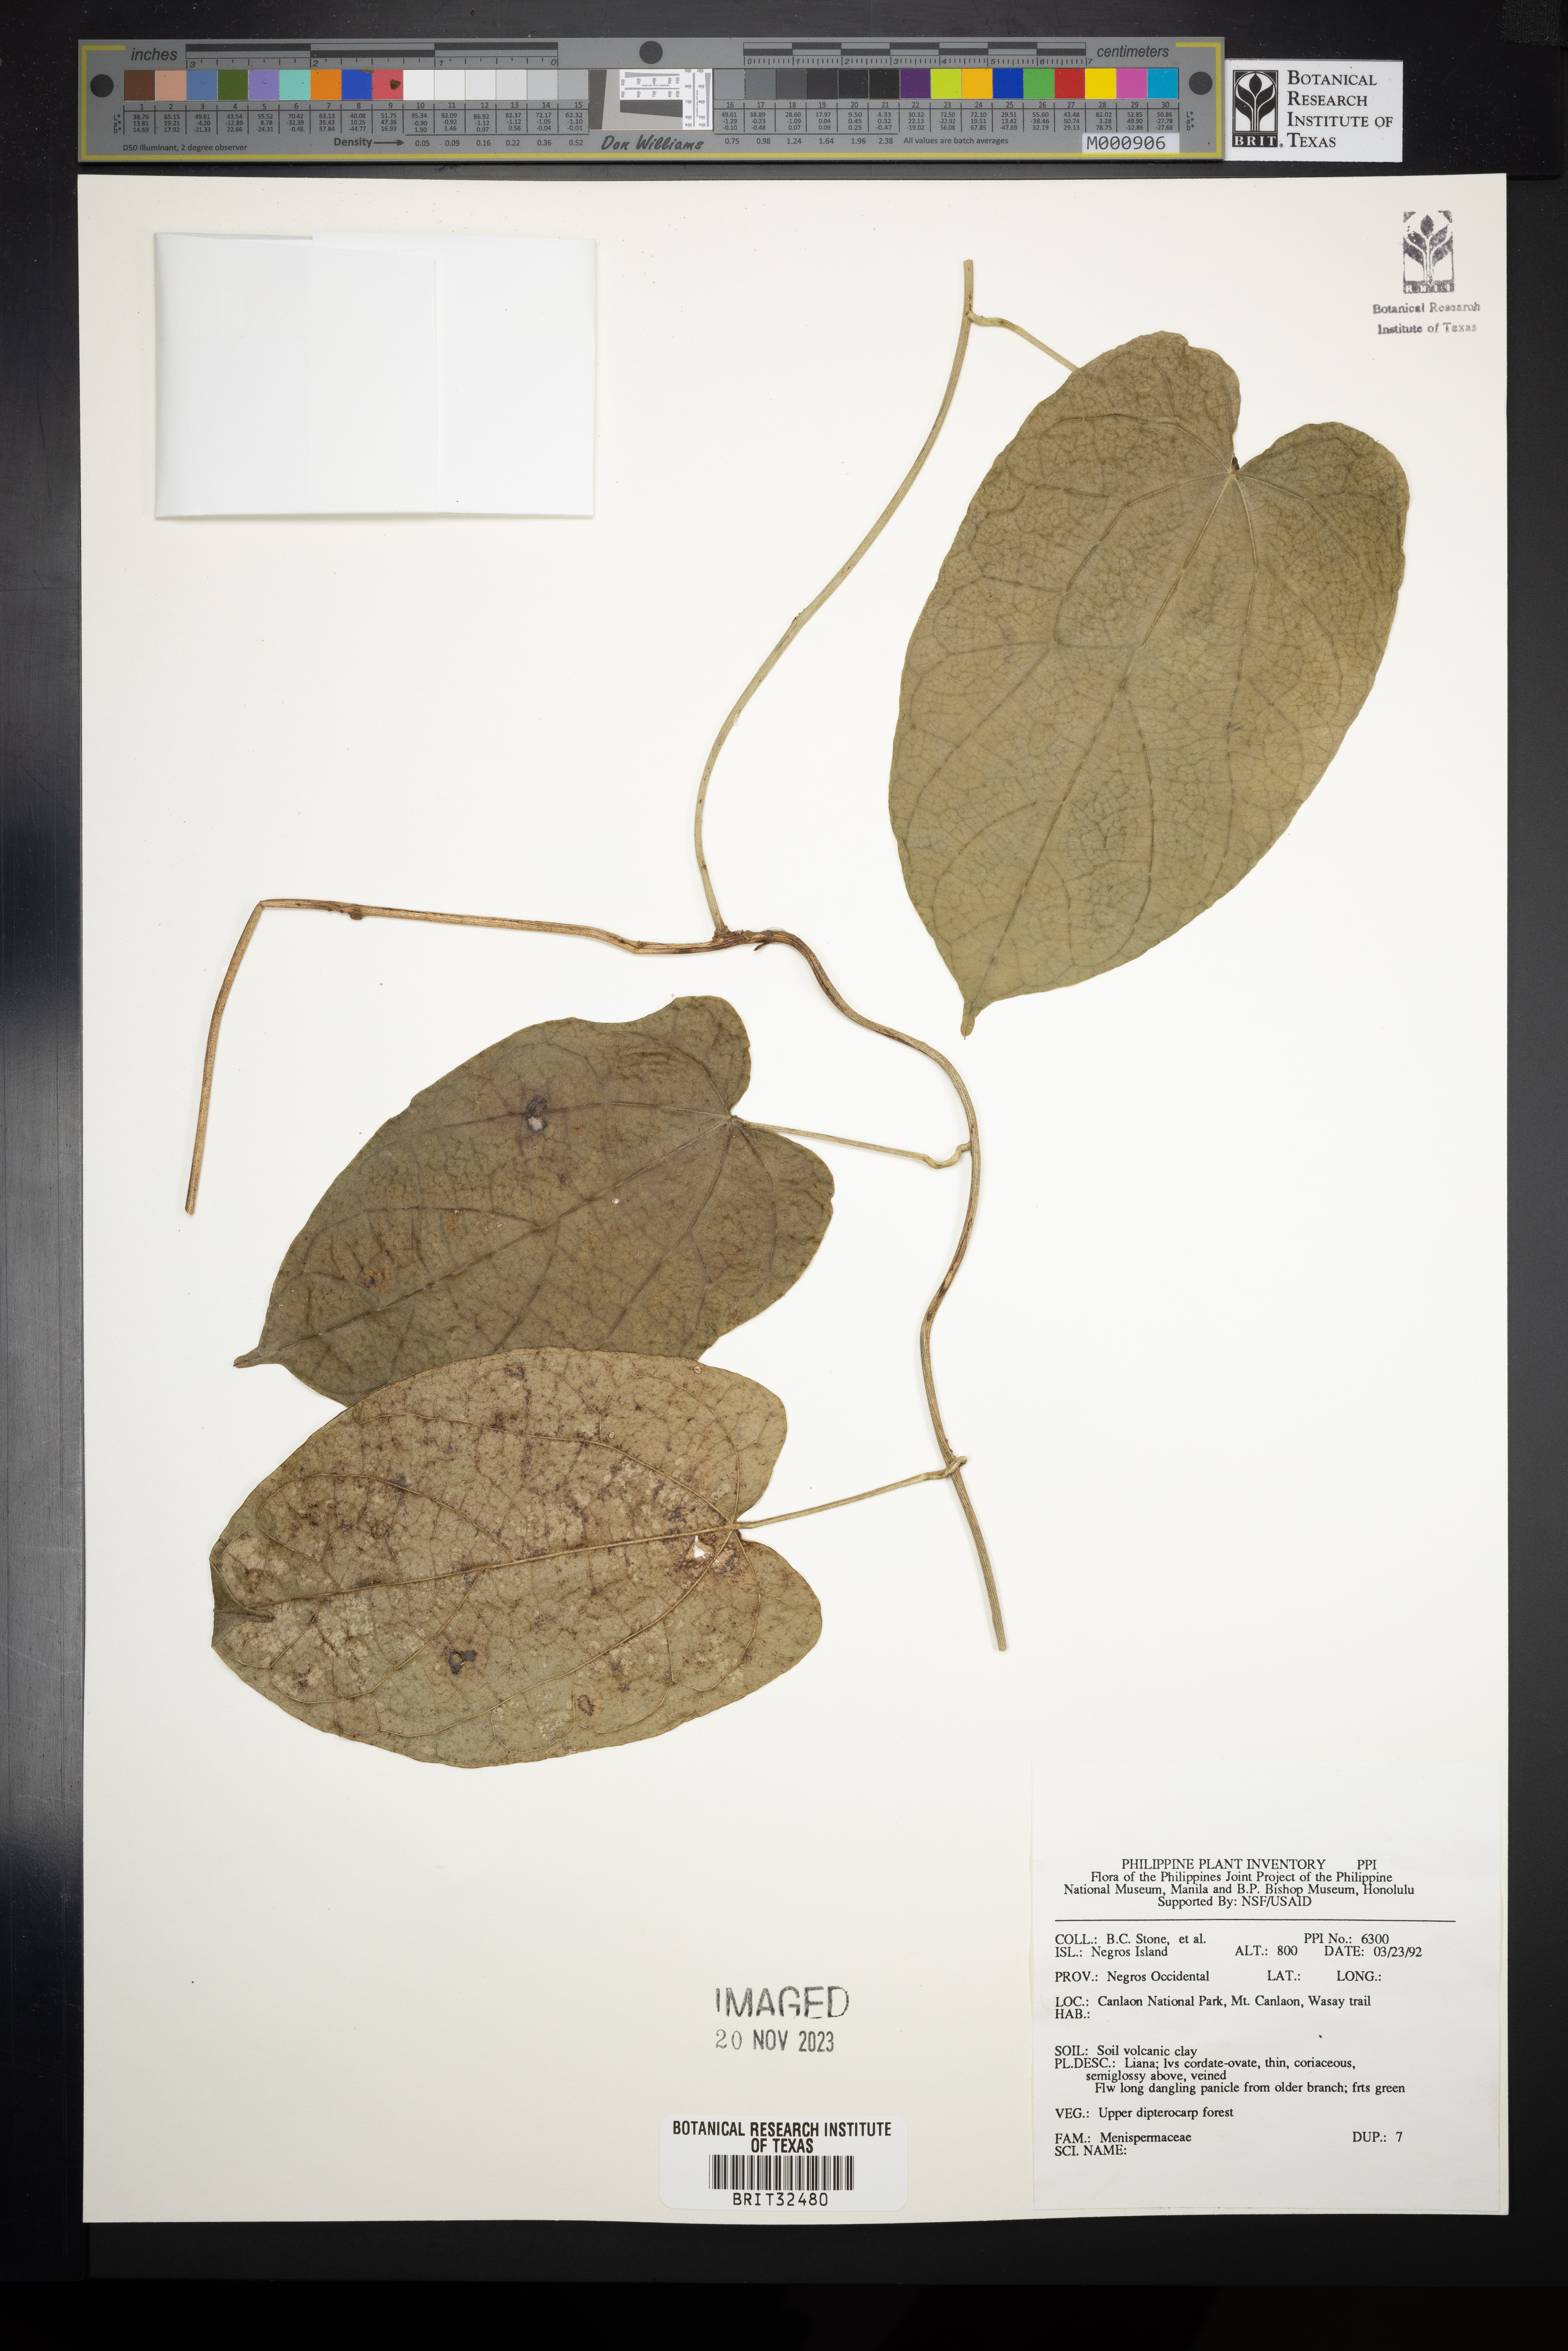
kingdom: Plantae
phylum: Tracheophyta
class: Magnoliopsida
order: Ranunculales
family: Menispermaceae
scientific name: Menispermaceae
